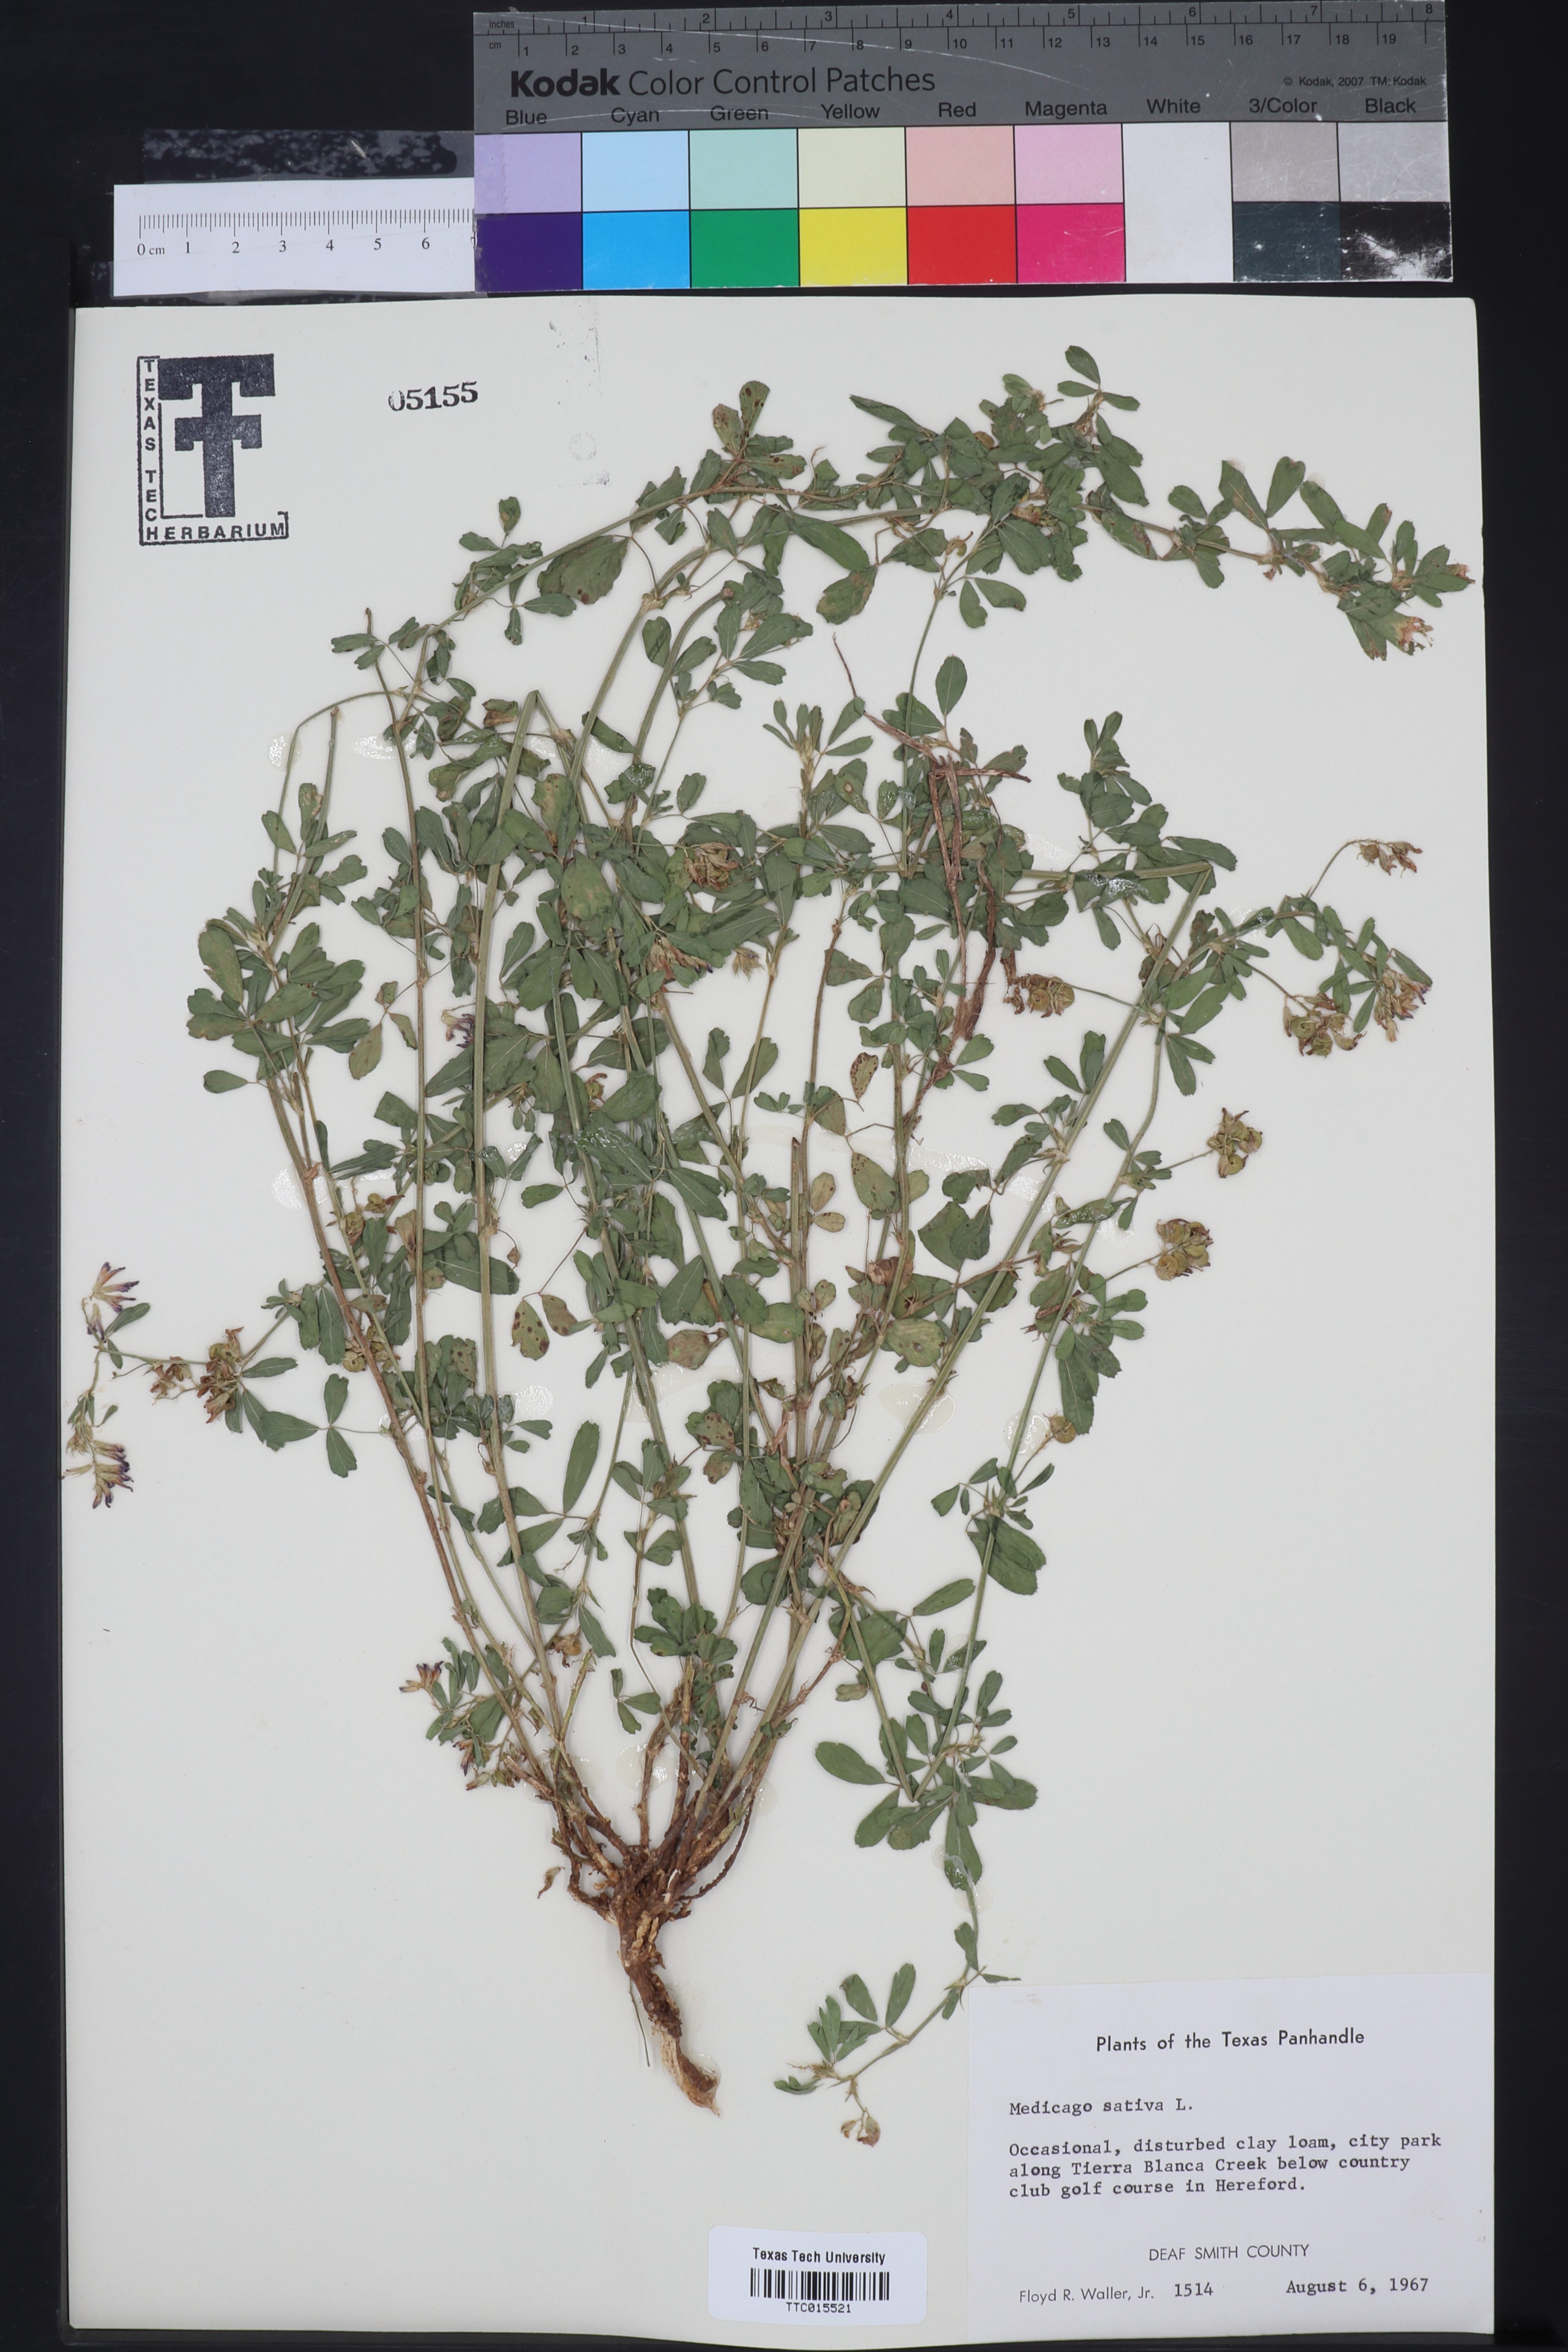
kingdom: Plantae
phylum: Tracheophyta
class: Magnoliopsida
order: Fabales
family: Fabaceae
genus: Medicago
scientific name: Medicago sativa
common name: Alfalfa
